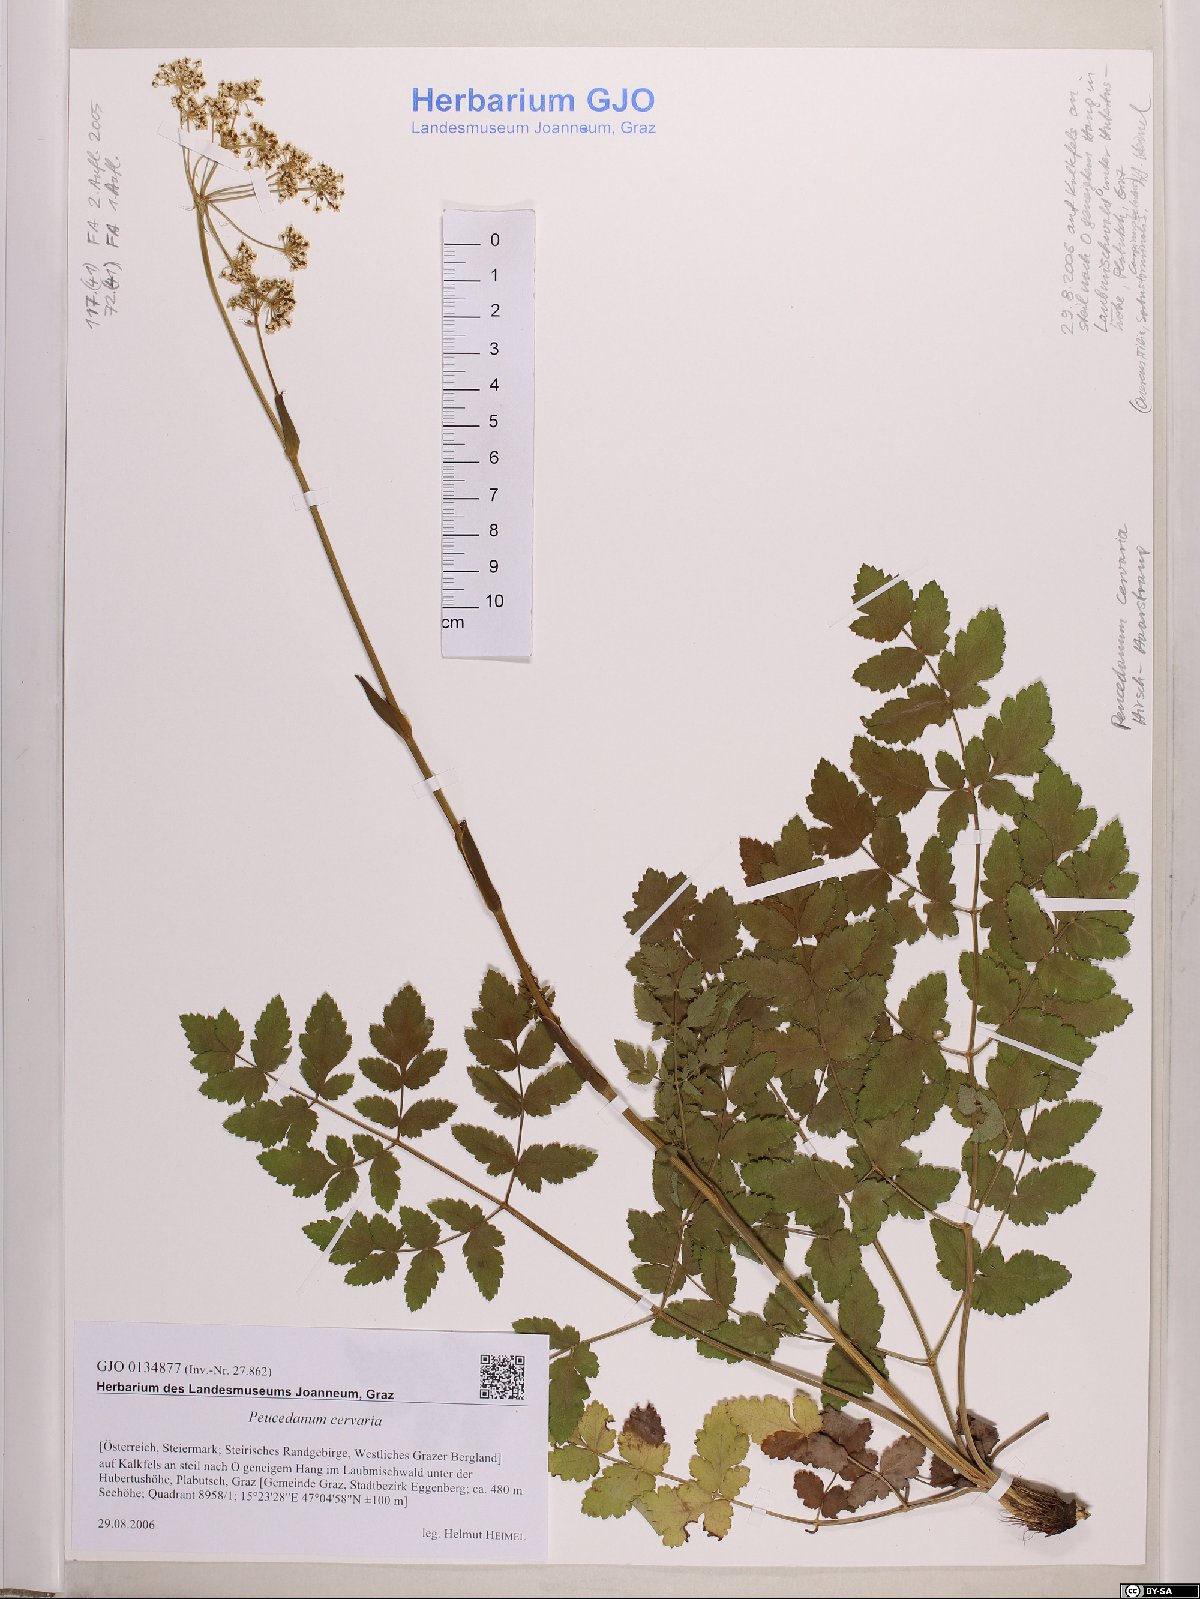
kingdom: Plantae
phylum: Tracheophyta
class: Magnoliopsida
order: Apiales
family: Apiaceae
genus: Cervaria
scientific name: Cervaria rivini
